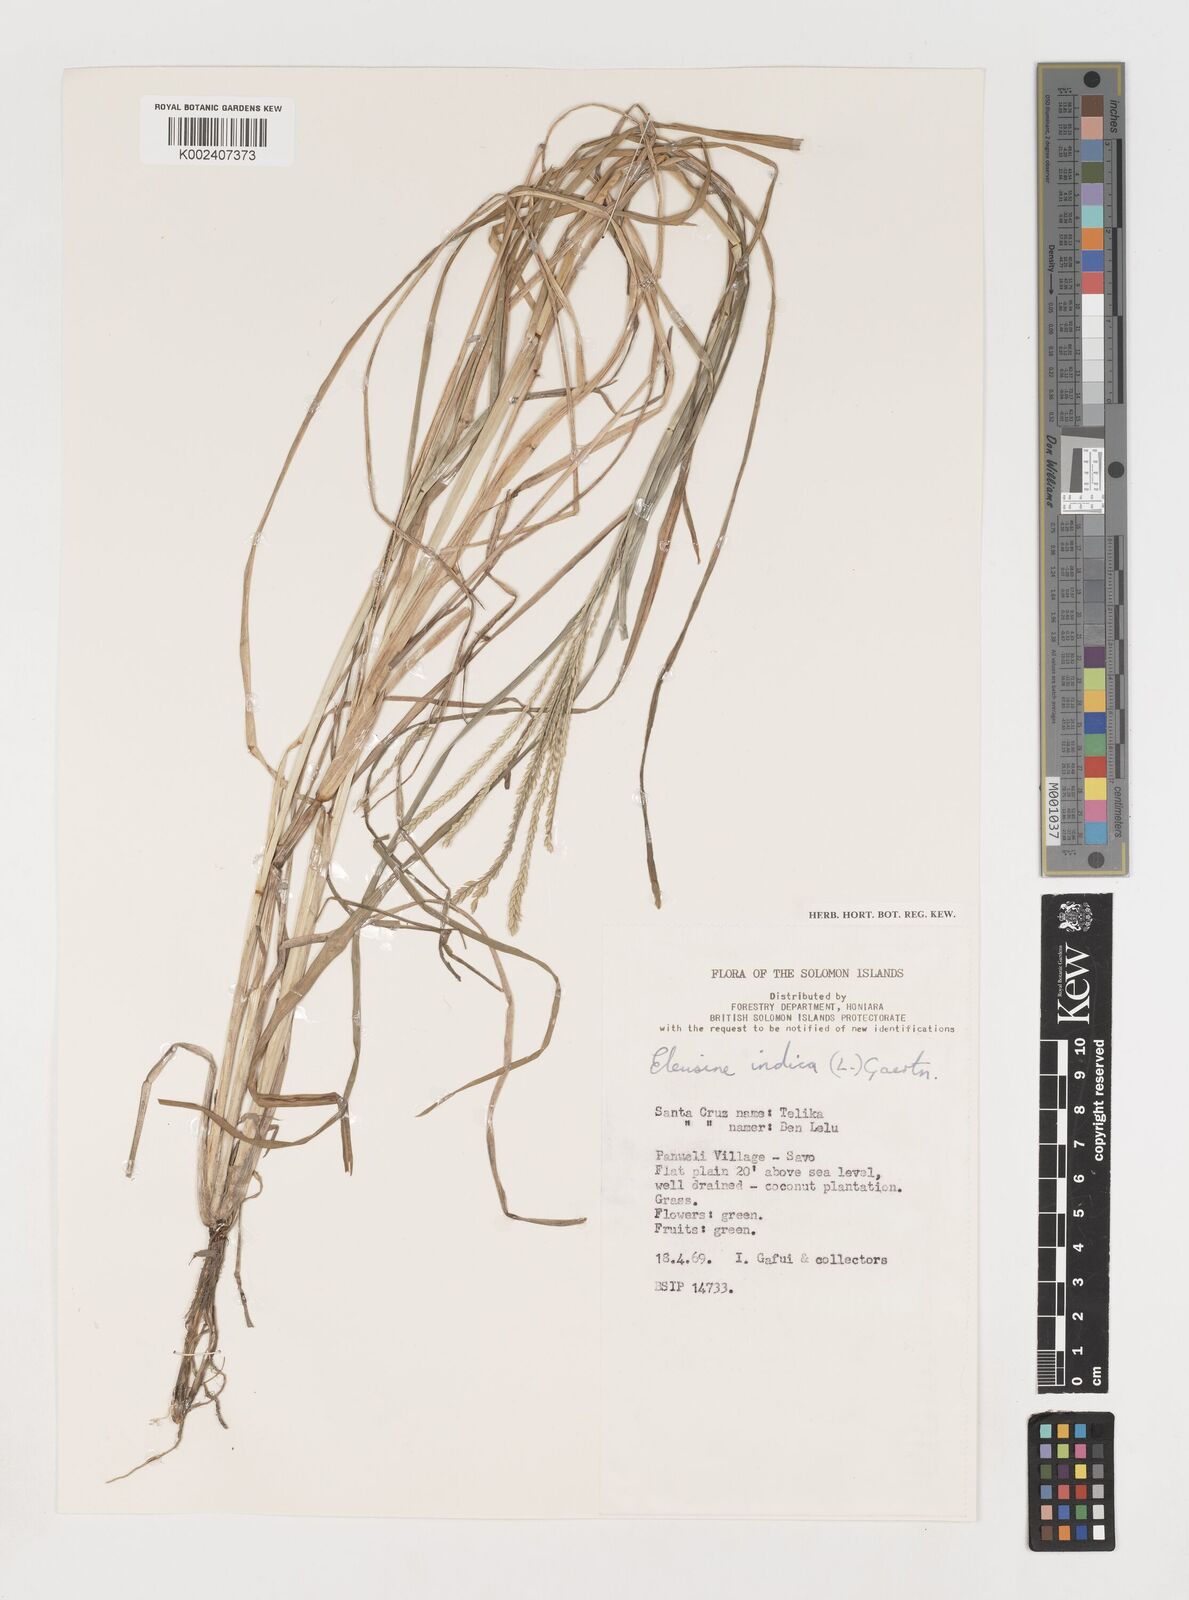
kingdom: Plantae
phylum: Tracheophyta
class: Liliopsida
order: Poales
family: Poaceae
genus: Eleusine
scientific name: Eleusine indica
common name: Yard-grass
